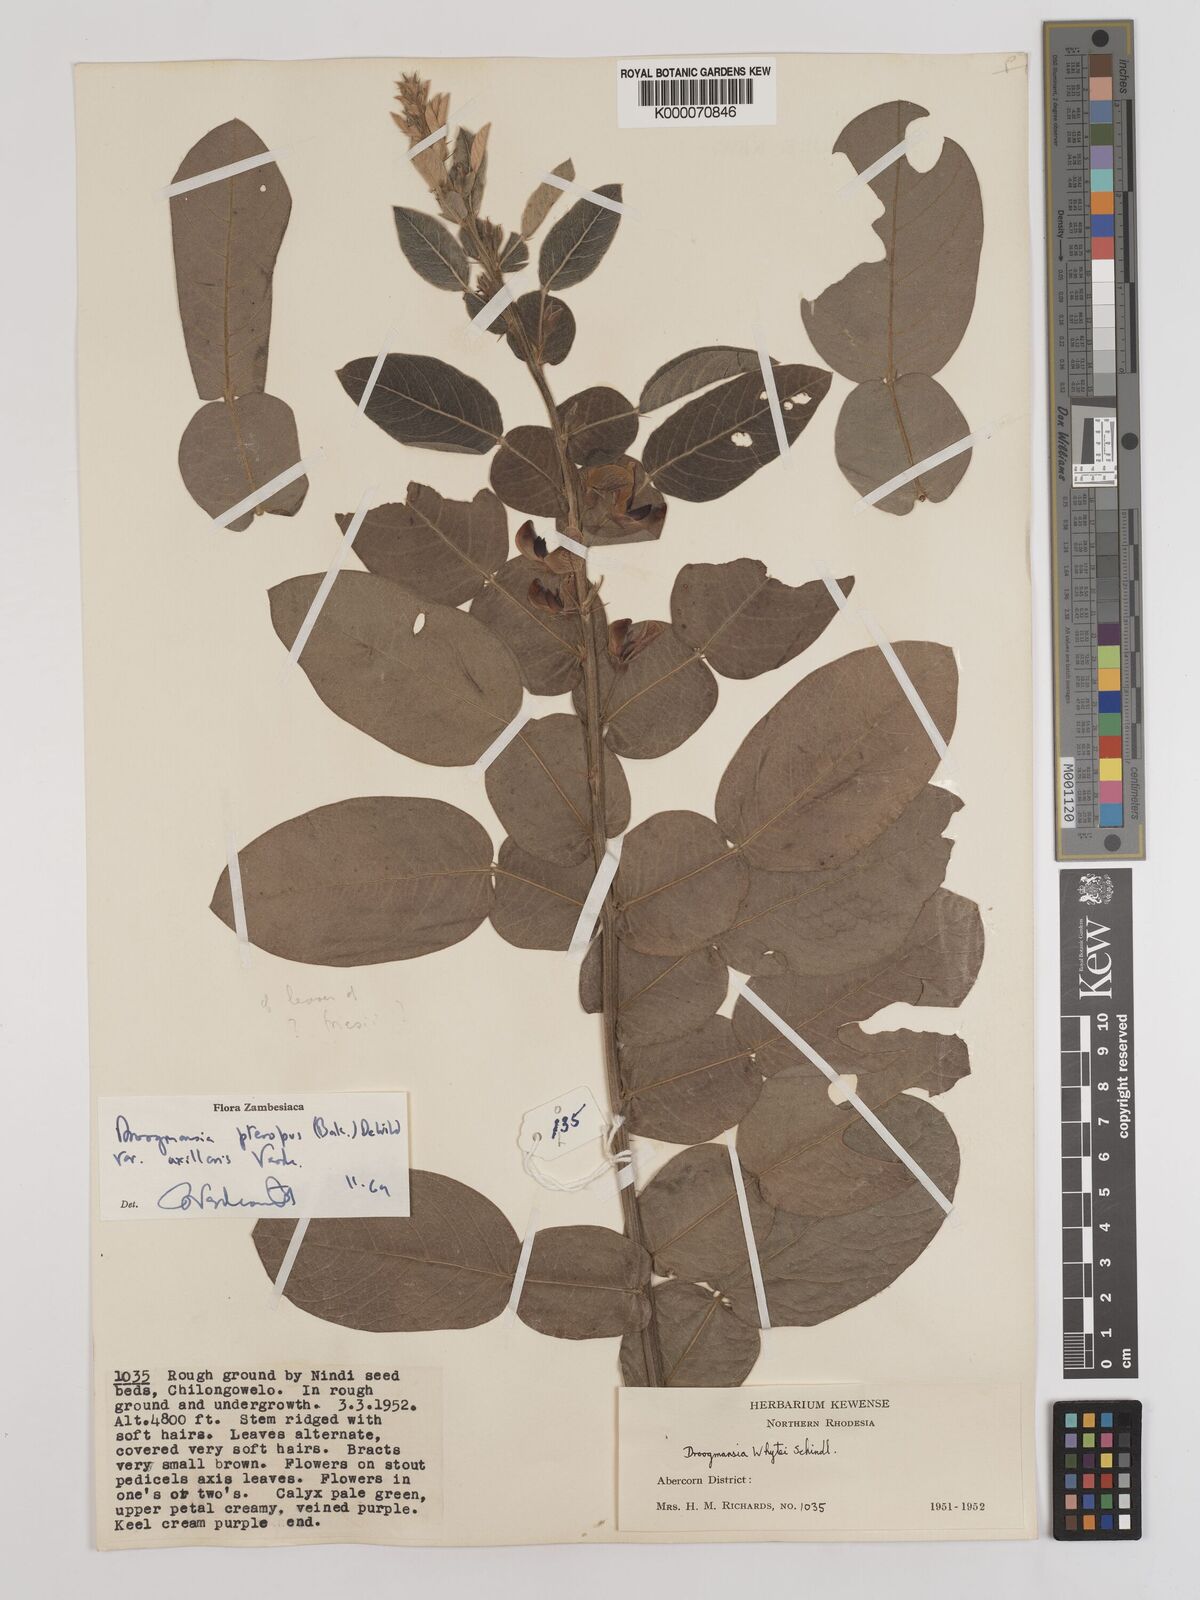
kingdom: Plantae
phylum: Tracheophyta
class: Magnoliopsida
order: Fabales
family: Fabaceae
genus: Droogmansia
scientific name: Droogmansia pteropus
